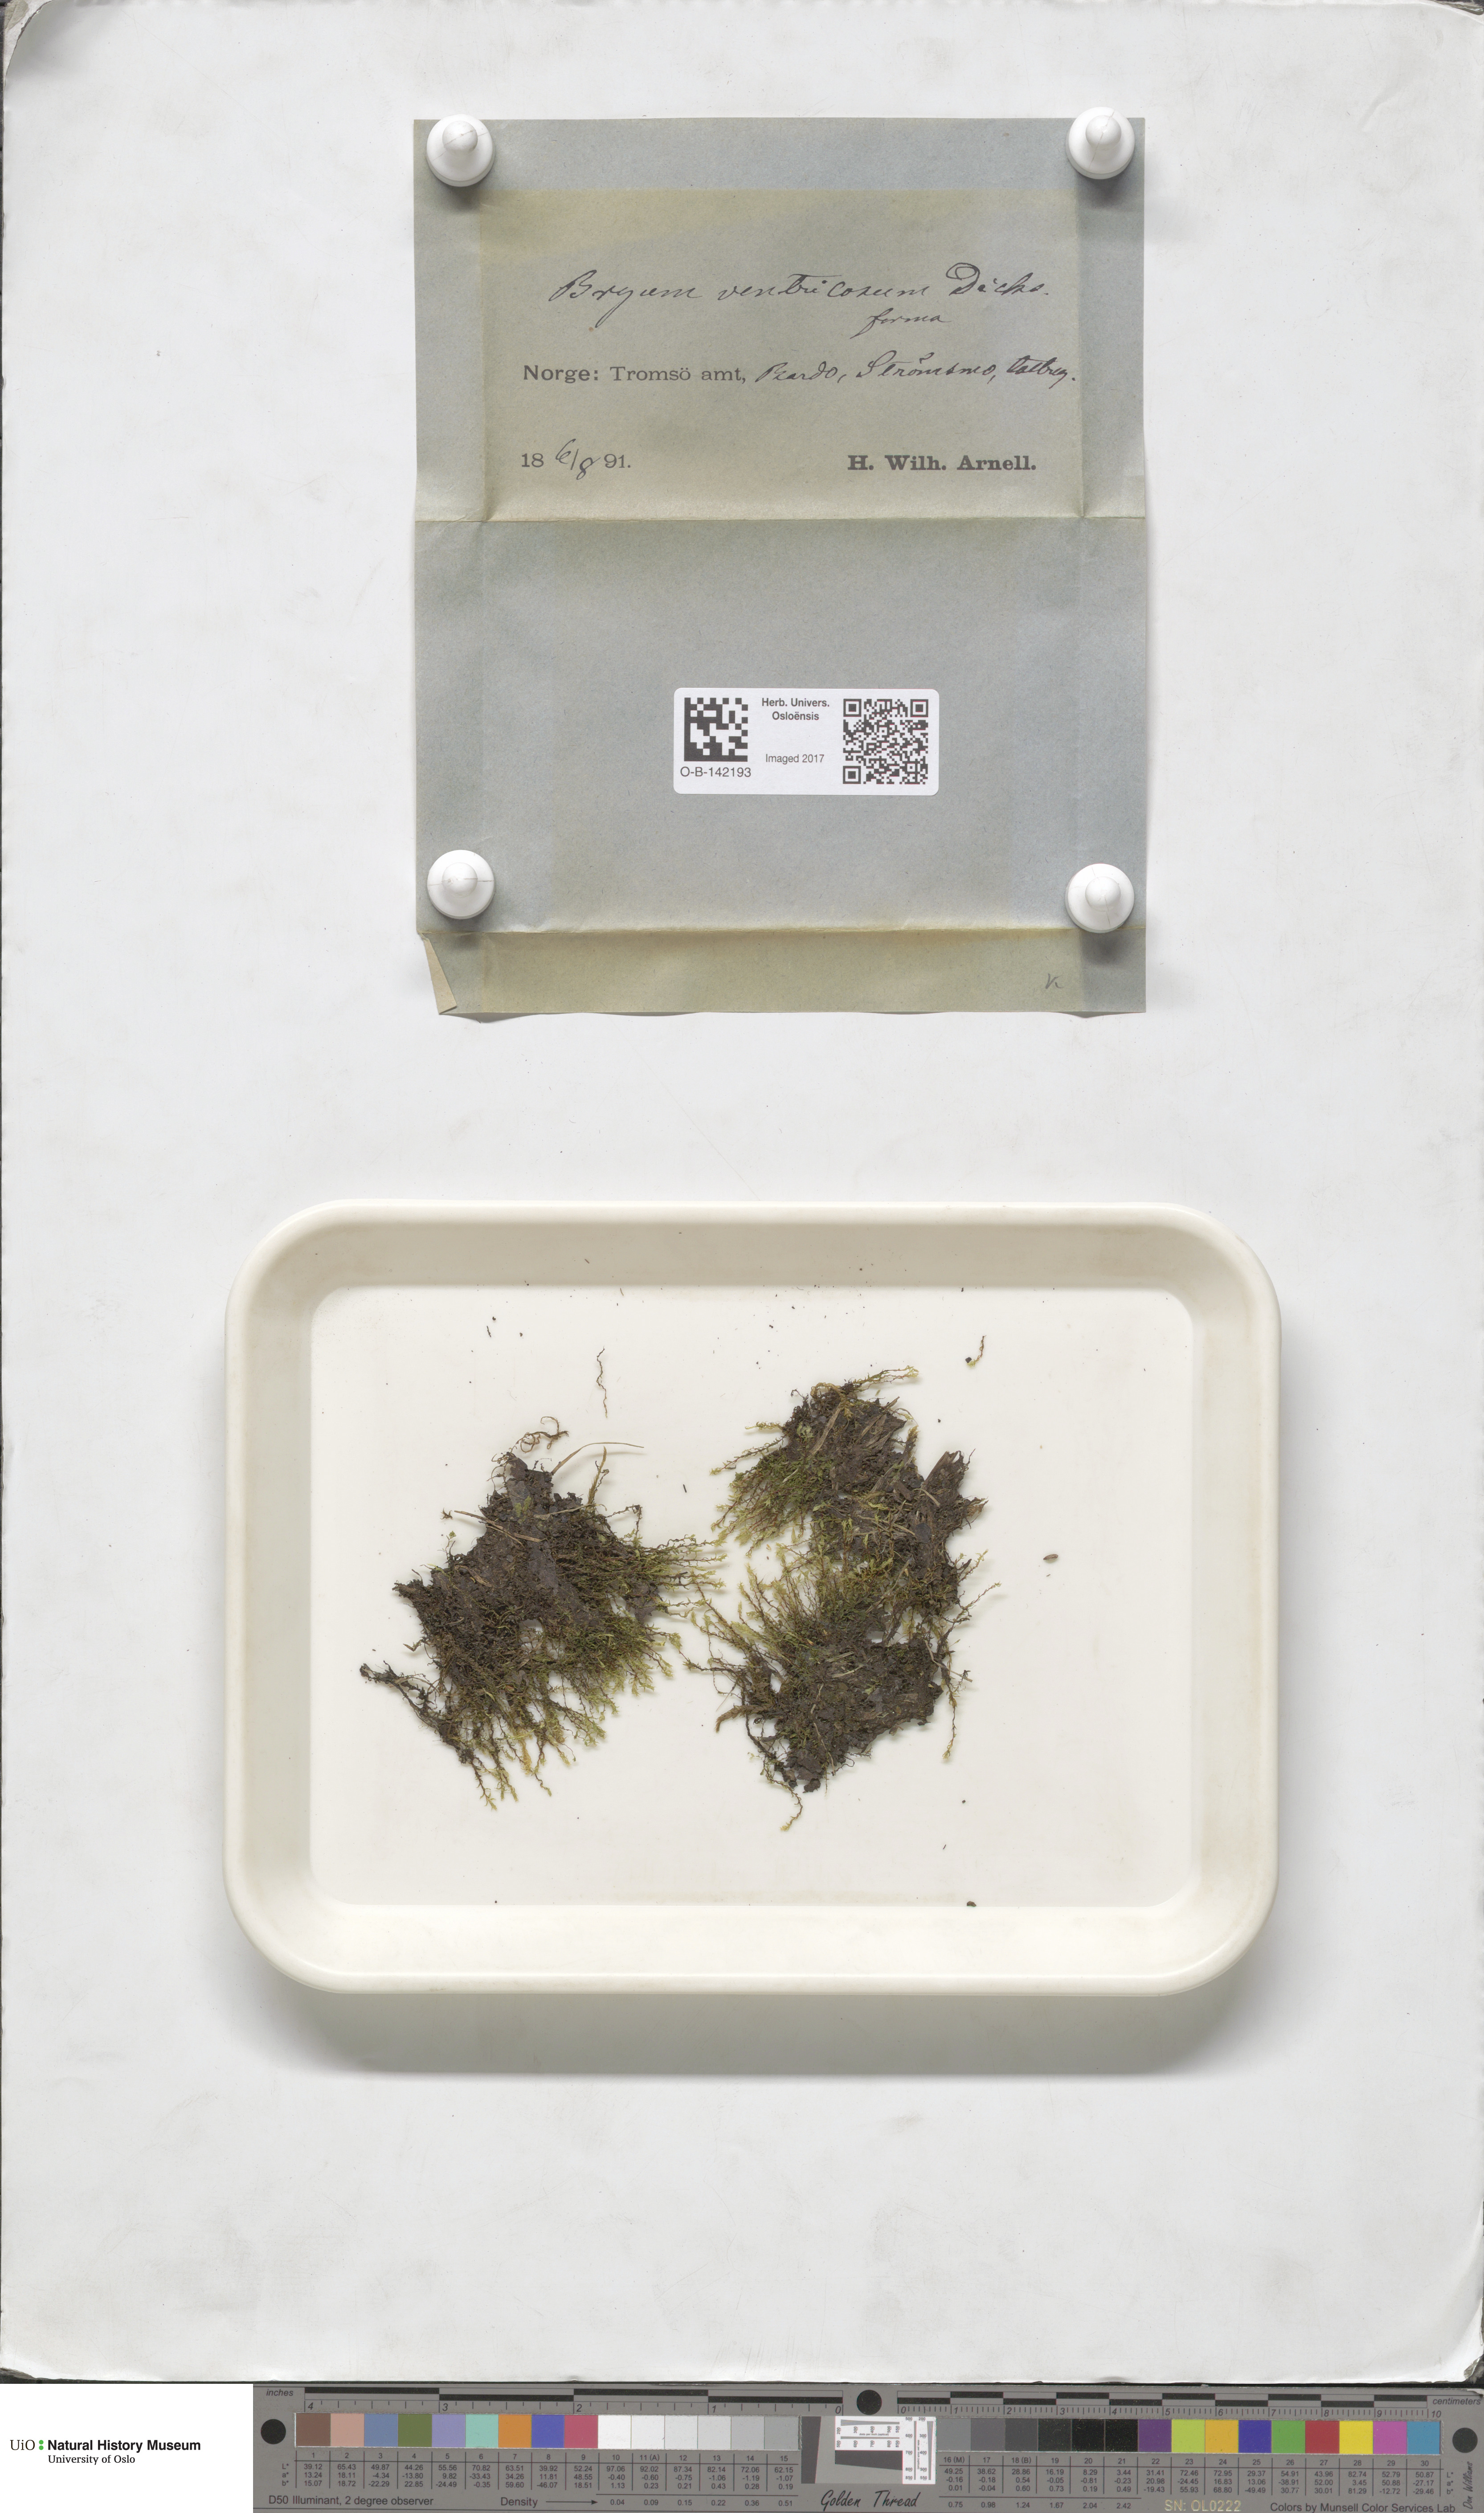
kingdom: Plantae
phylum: Bryophyta
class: Bryopsida
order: Bryales
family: Bryaceae
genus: Ptychostomum
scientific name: Ptychostomum pseudotriquetrum
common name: Long-leaved thread moss
